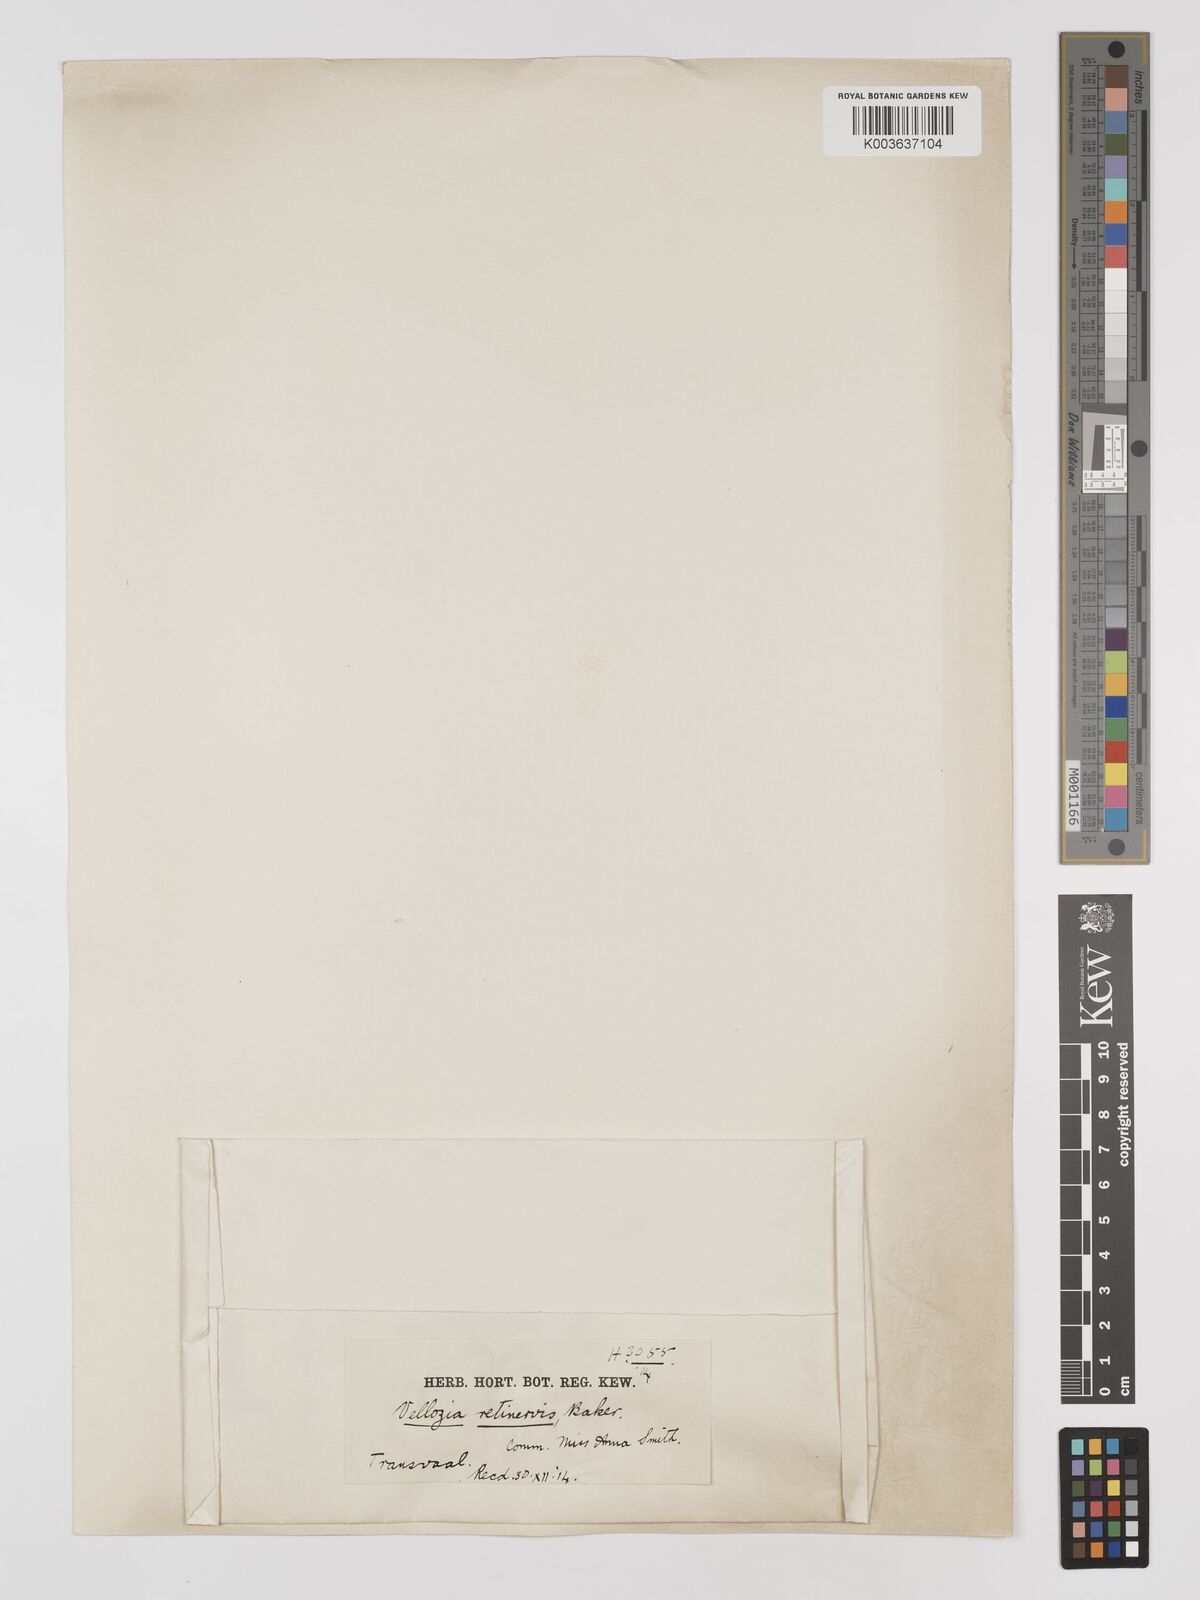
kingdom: Plantae
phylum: Tracheophyta
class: Liliopsida
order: Pandanales
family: Velloziaceae
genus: Xerophyta
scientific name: Xerophyta retinervis
